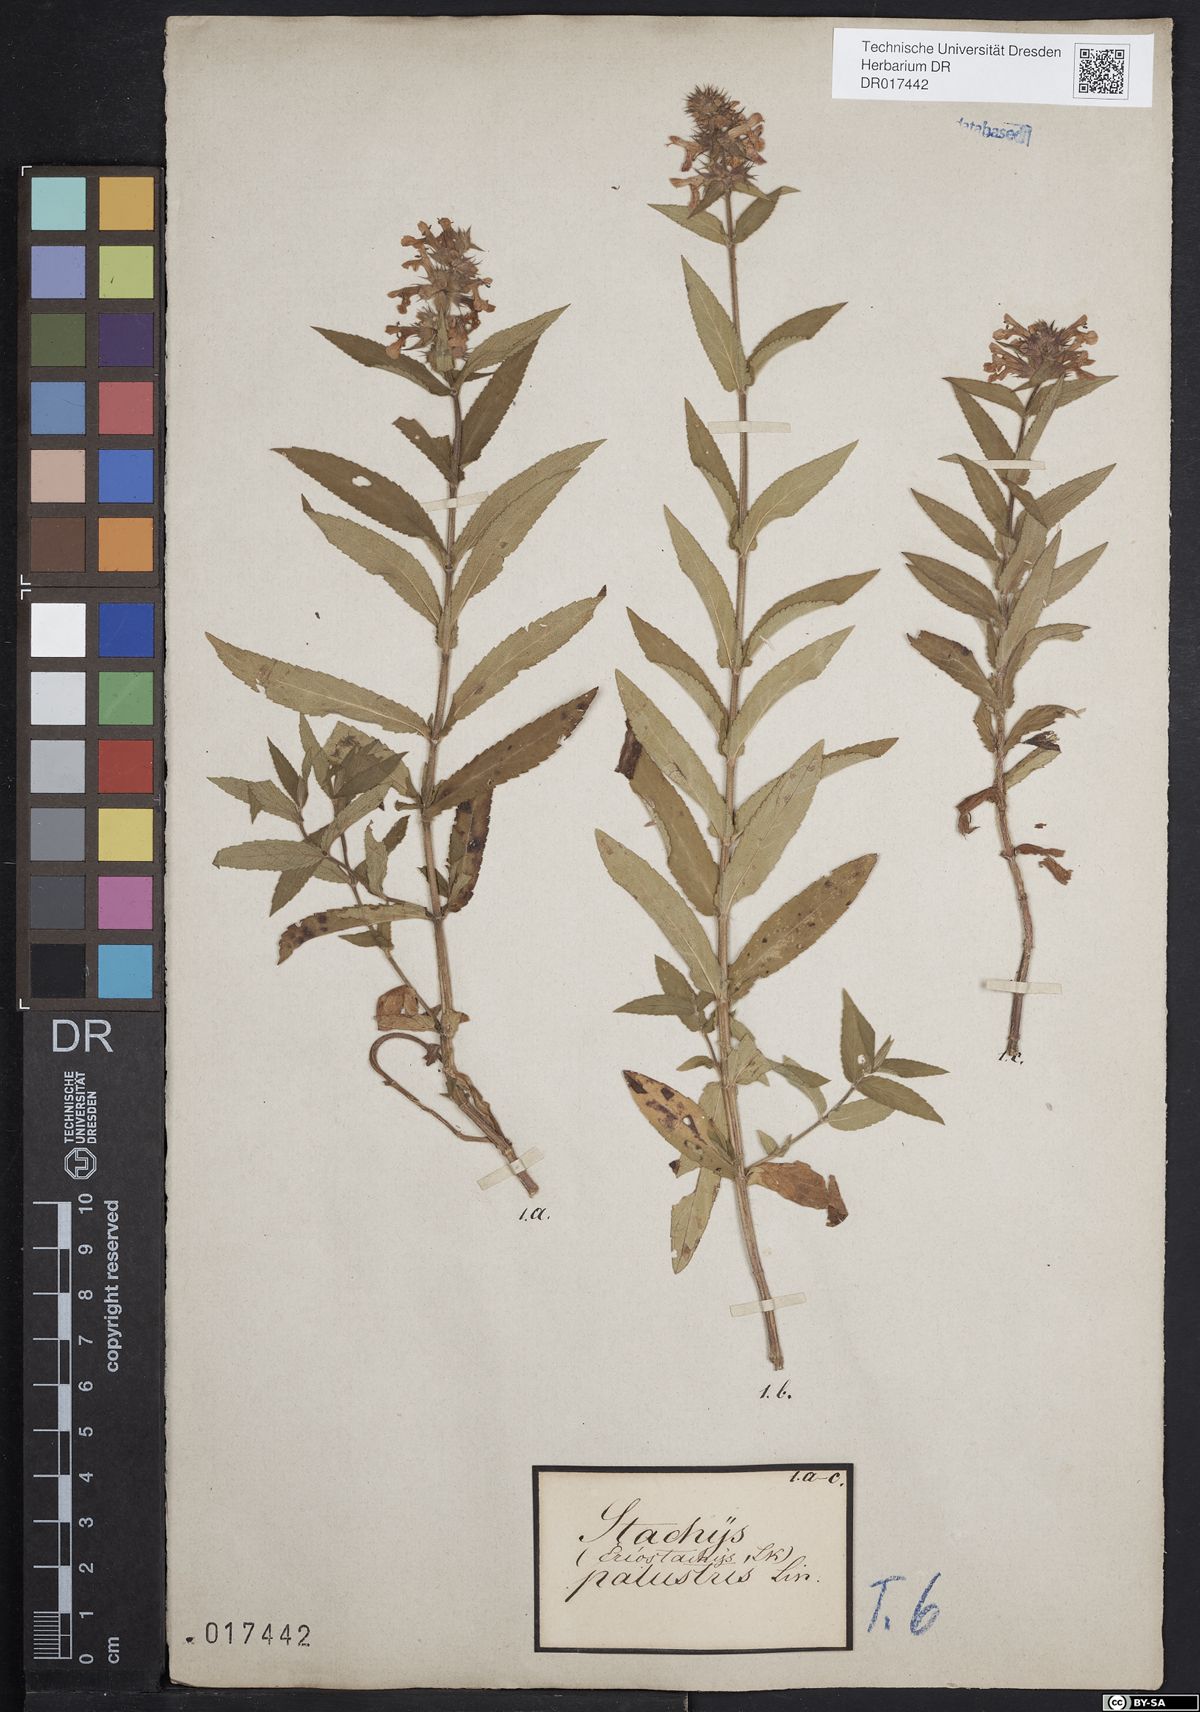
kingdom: Plantae
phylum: Tracheophyta
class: Magnoliopsida
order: Lamiales
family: Lamiaceae
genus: Stachys
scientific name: Stachys palustris
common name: Marsh woundwort
